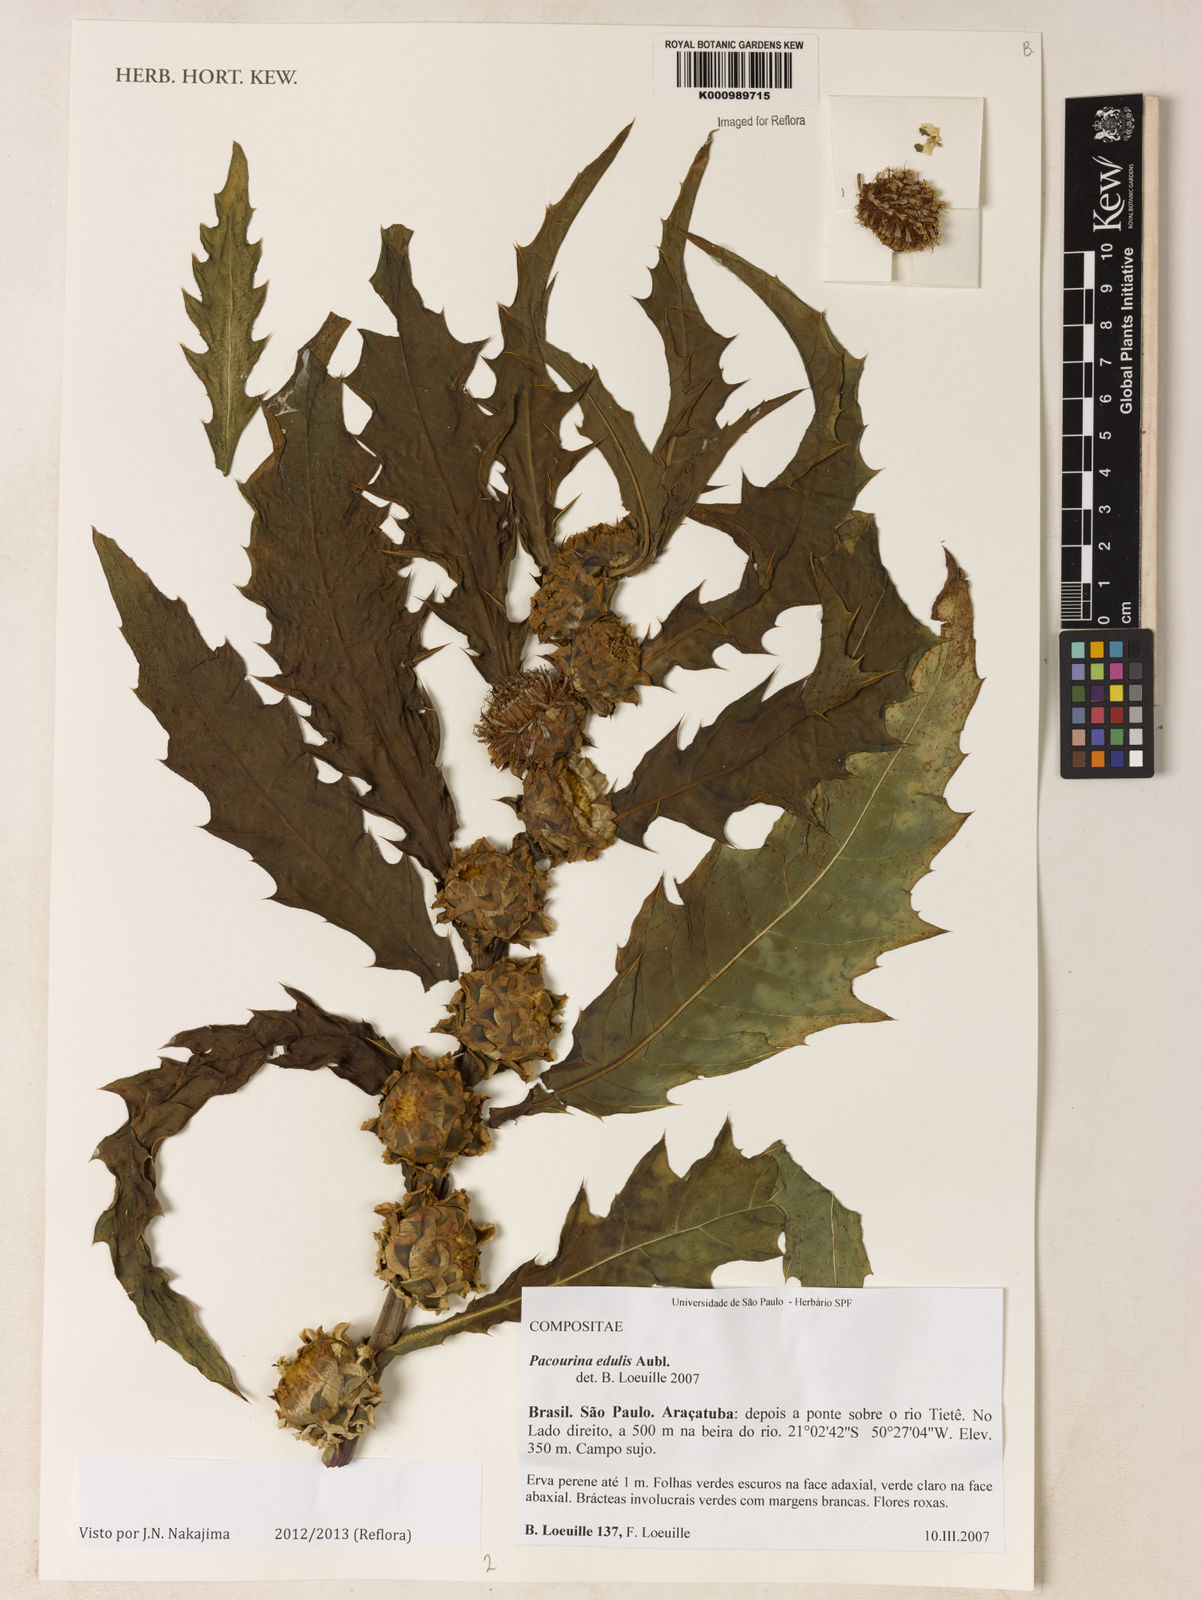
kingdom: Plantae
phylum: Tracheophyta
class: Magnoliopsida
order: Asterales
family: Asteraceae
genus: Pacourina
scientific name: Pacourina edulis
